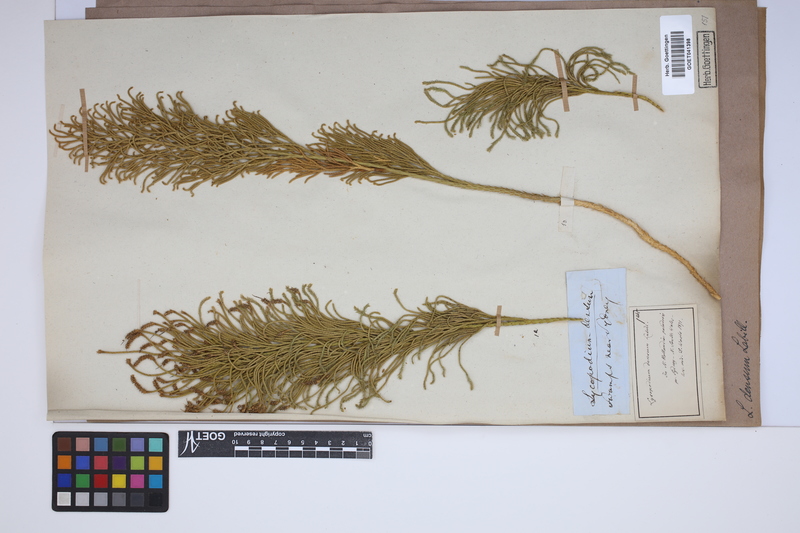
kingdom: Plantae
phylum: Tracheophyta
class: Lycopodiopsida
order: Lycopodiales
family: Lycopodiaceae
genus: Pseudolycopodium
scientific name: Pseudolycopodium densum
